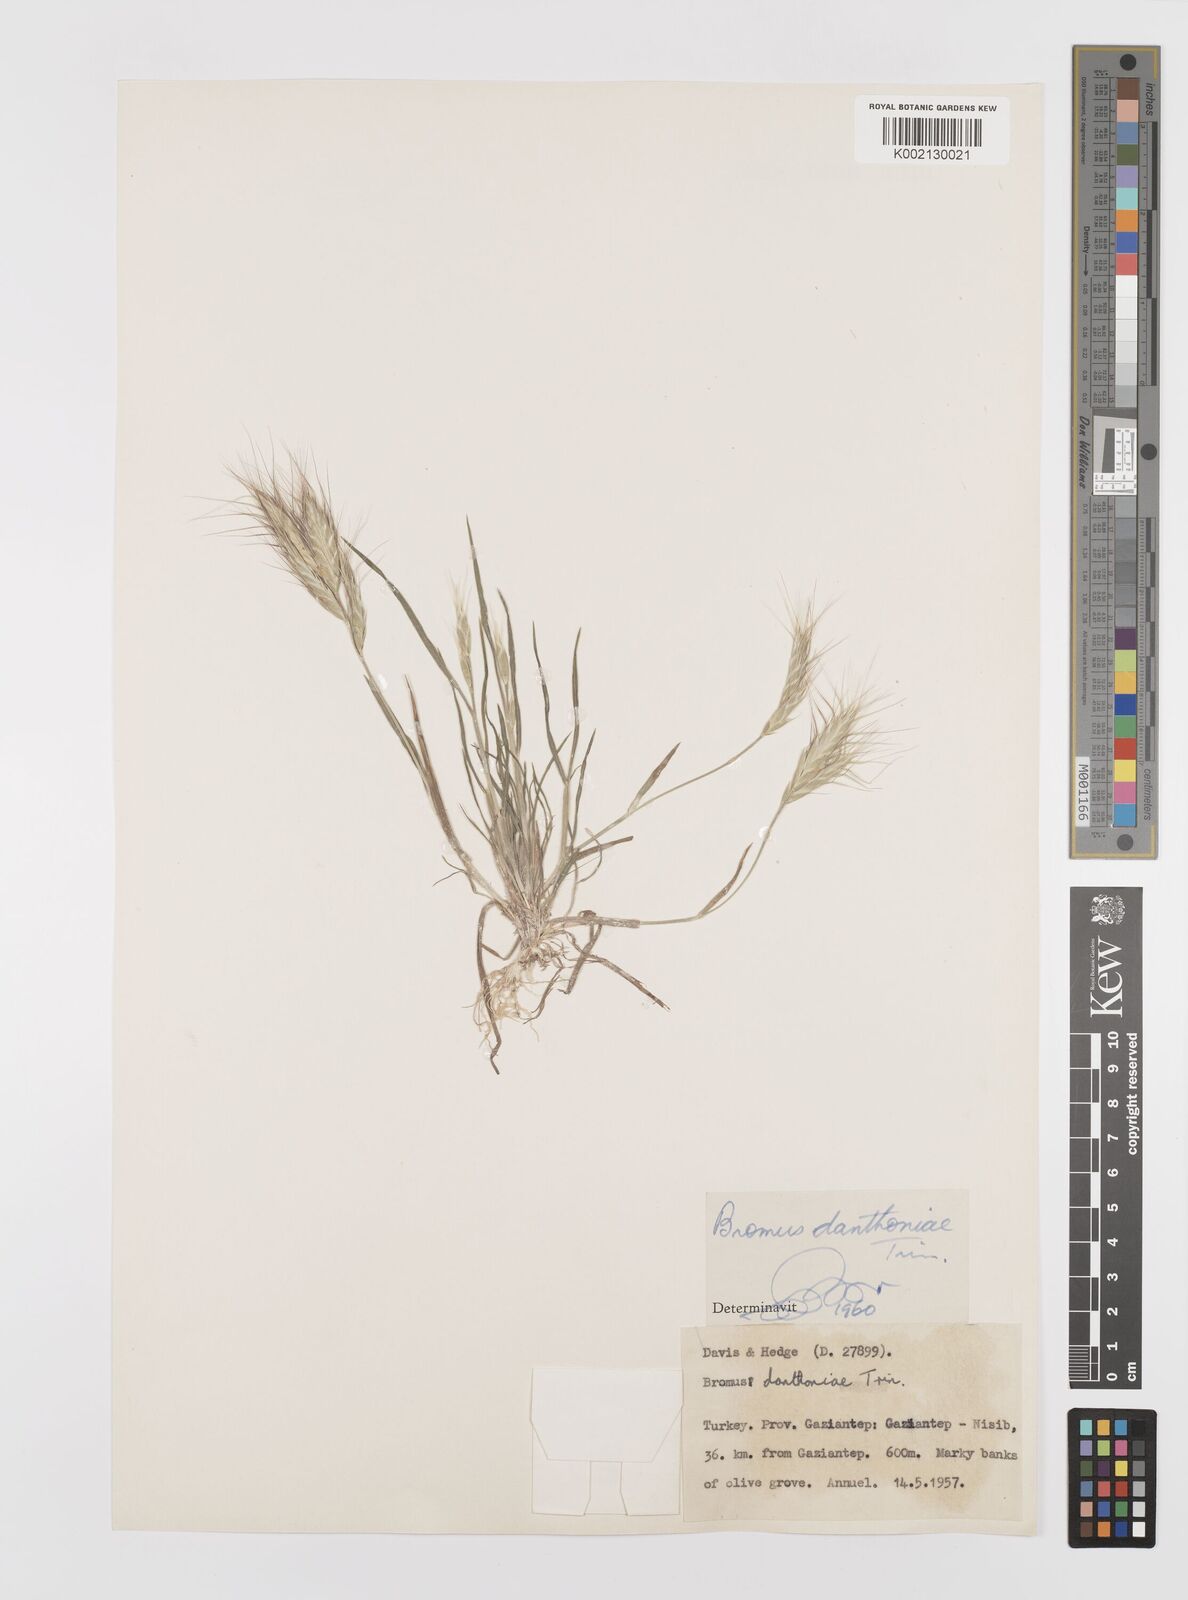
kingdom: Plantae
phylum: Tracheophyta
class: Liliopsida
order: Poales
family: Poaceae
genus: Bromus
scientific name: Bromus danthoniae
